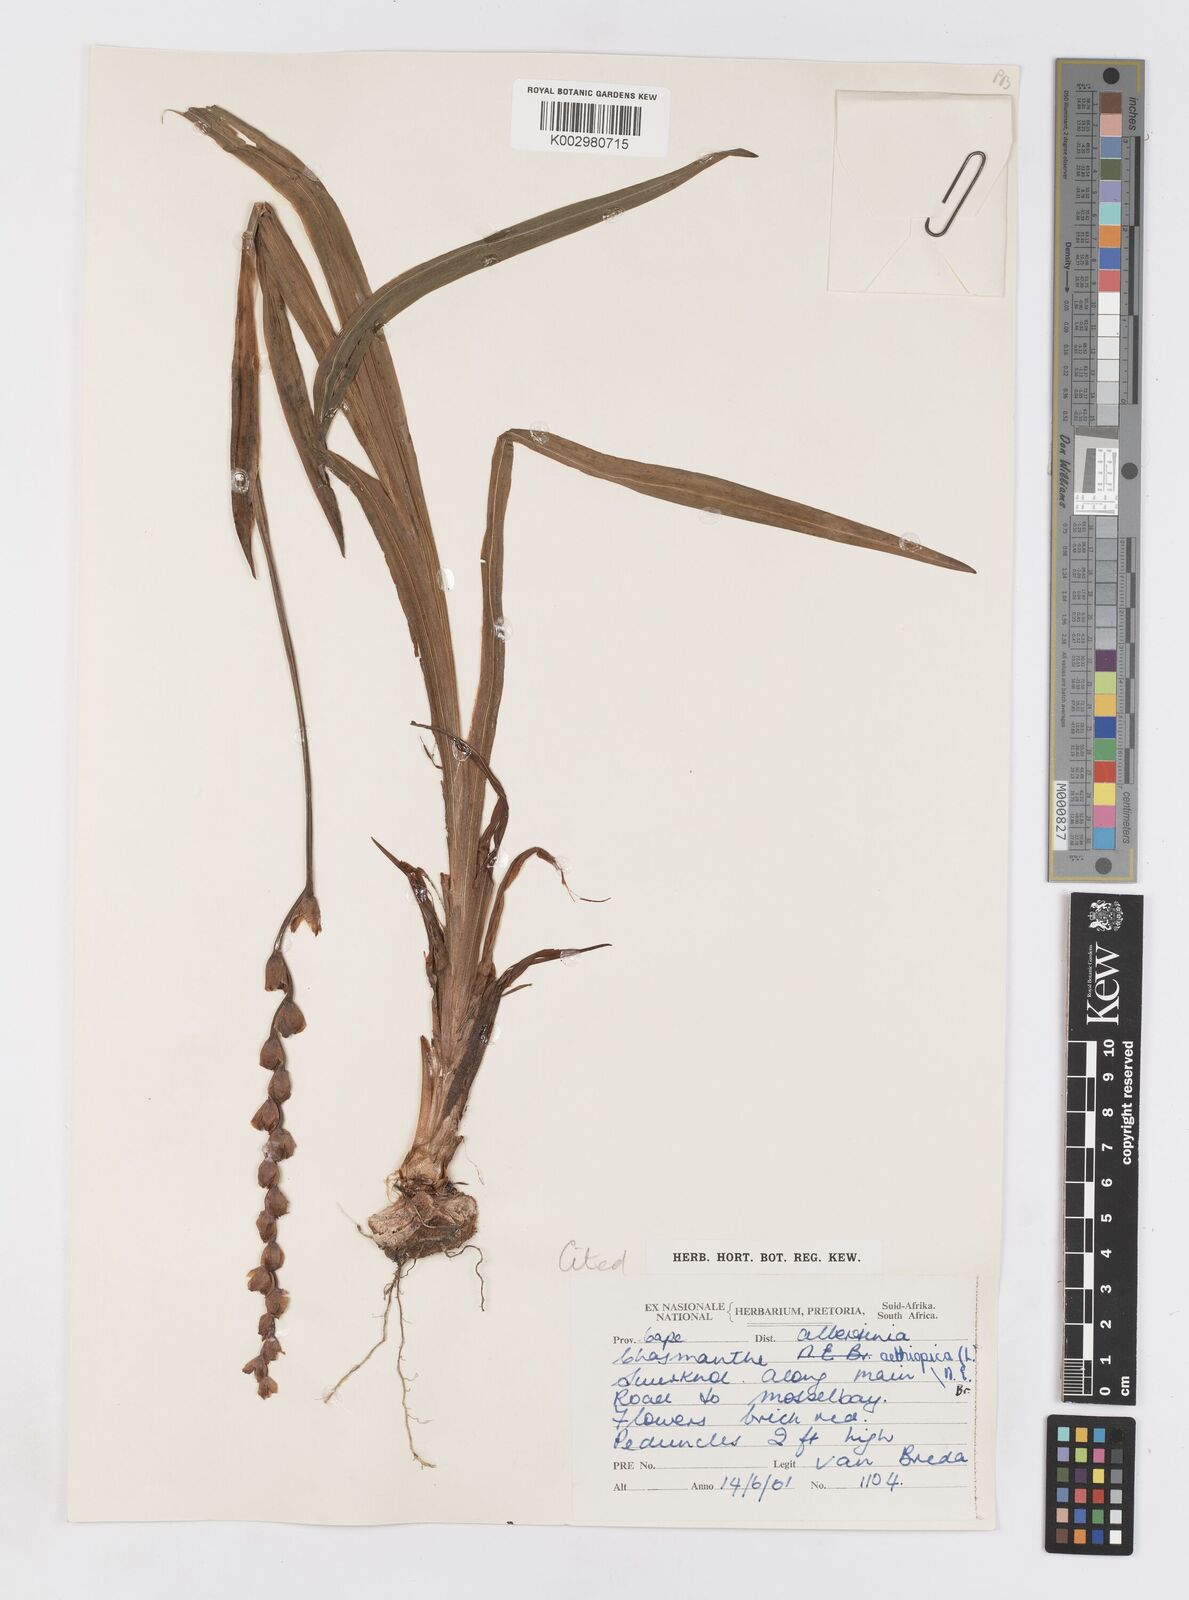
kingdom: Plantae
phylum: Tracheophyta
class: Liliopsida
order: Asparagales
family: Iridaceae
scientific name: Iridaceae
